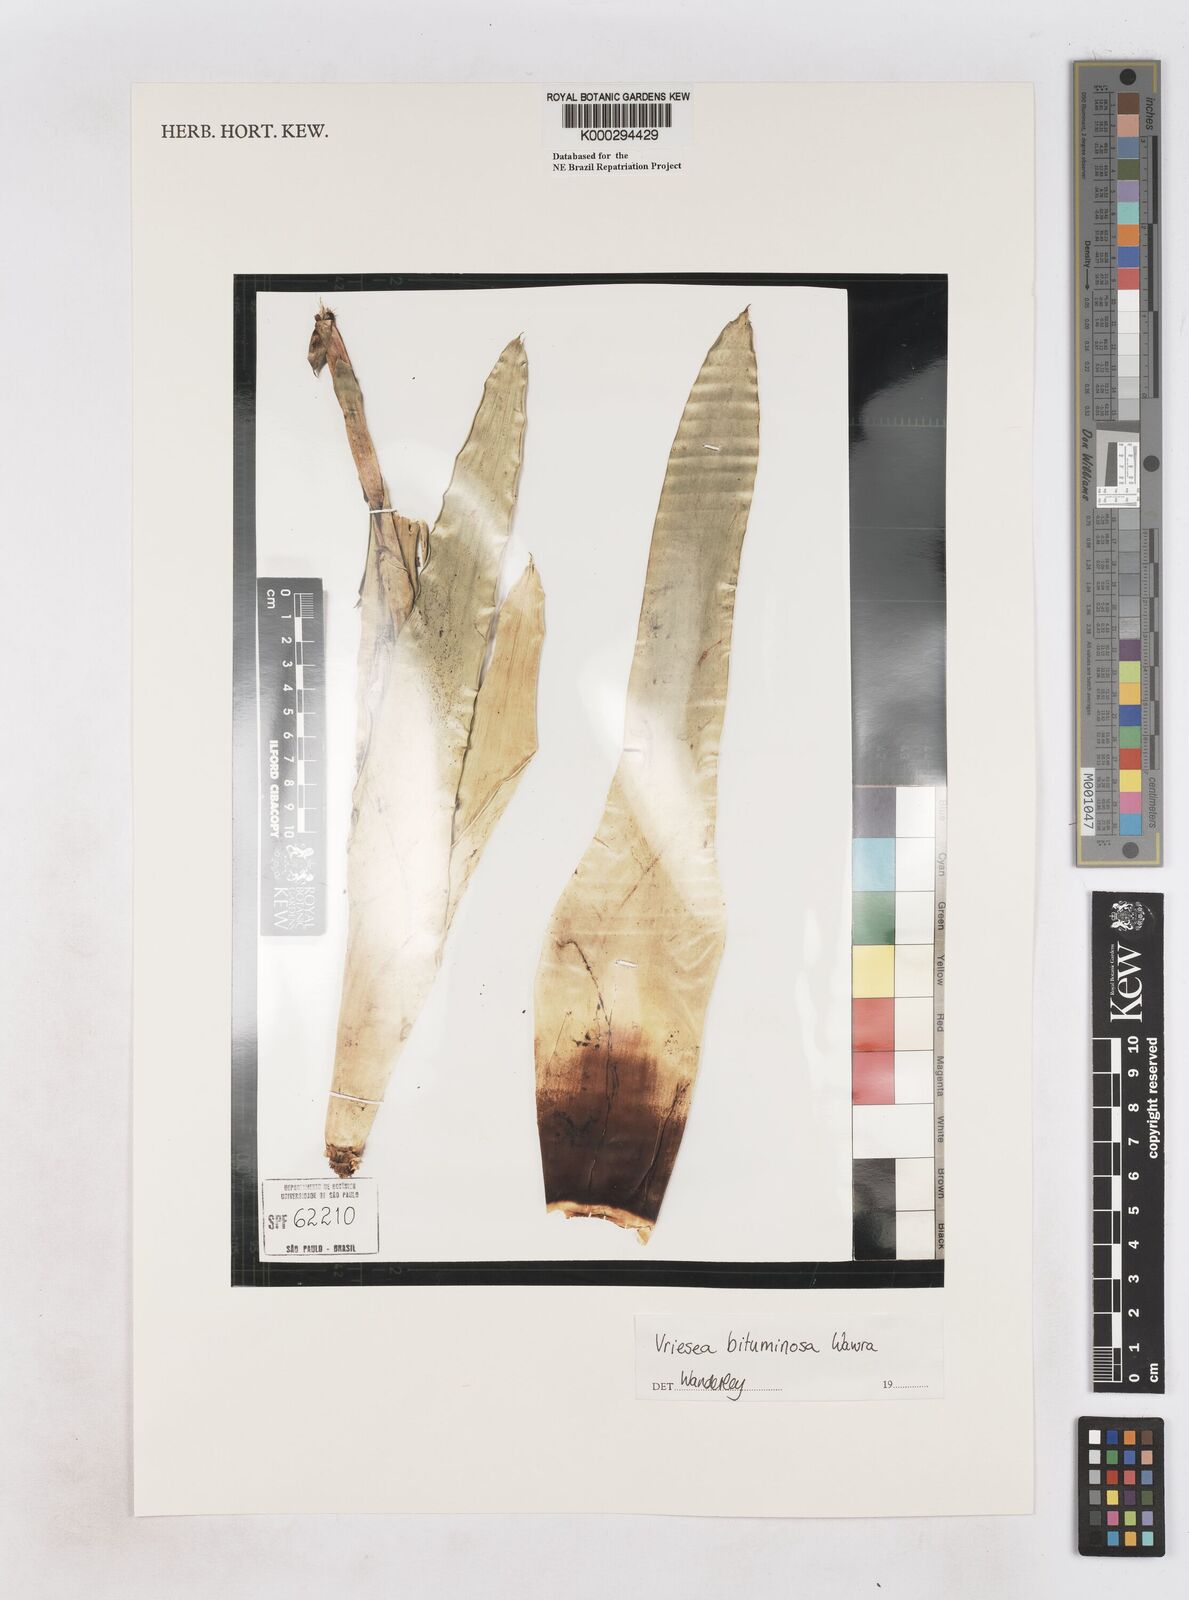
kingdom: Plantae
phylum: Tracheophyta
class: Liliopsida
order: Poales
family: Bromeliaceae
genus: Vriesea
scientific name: Vriesea bituminosa
